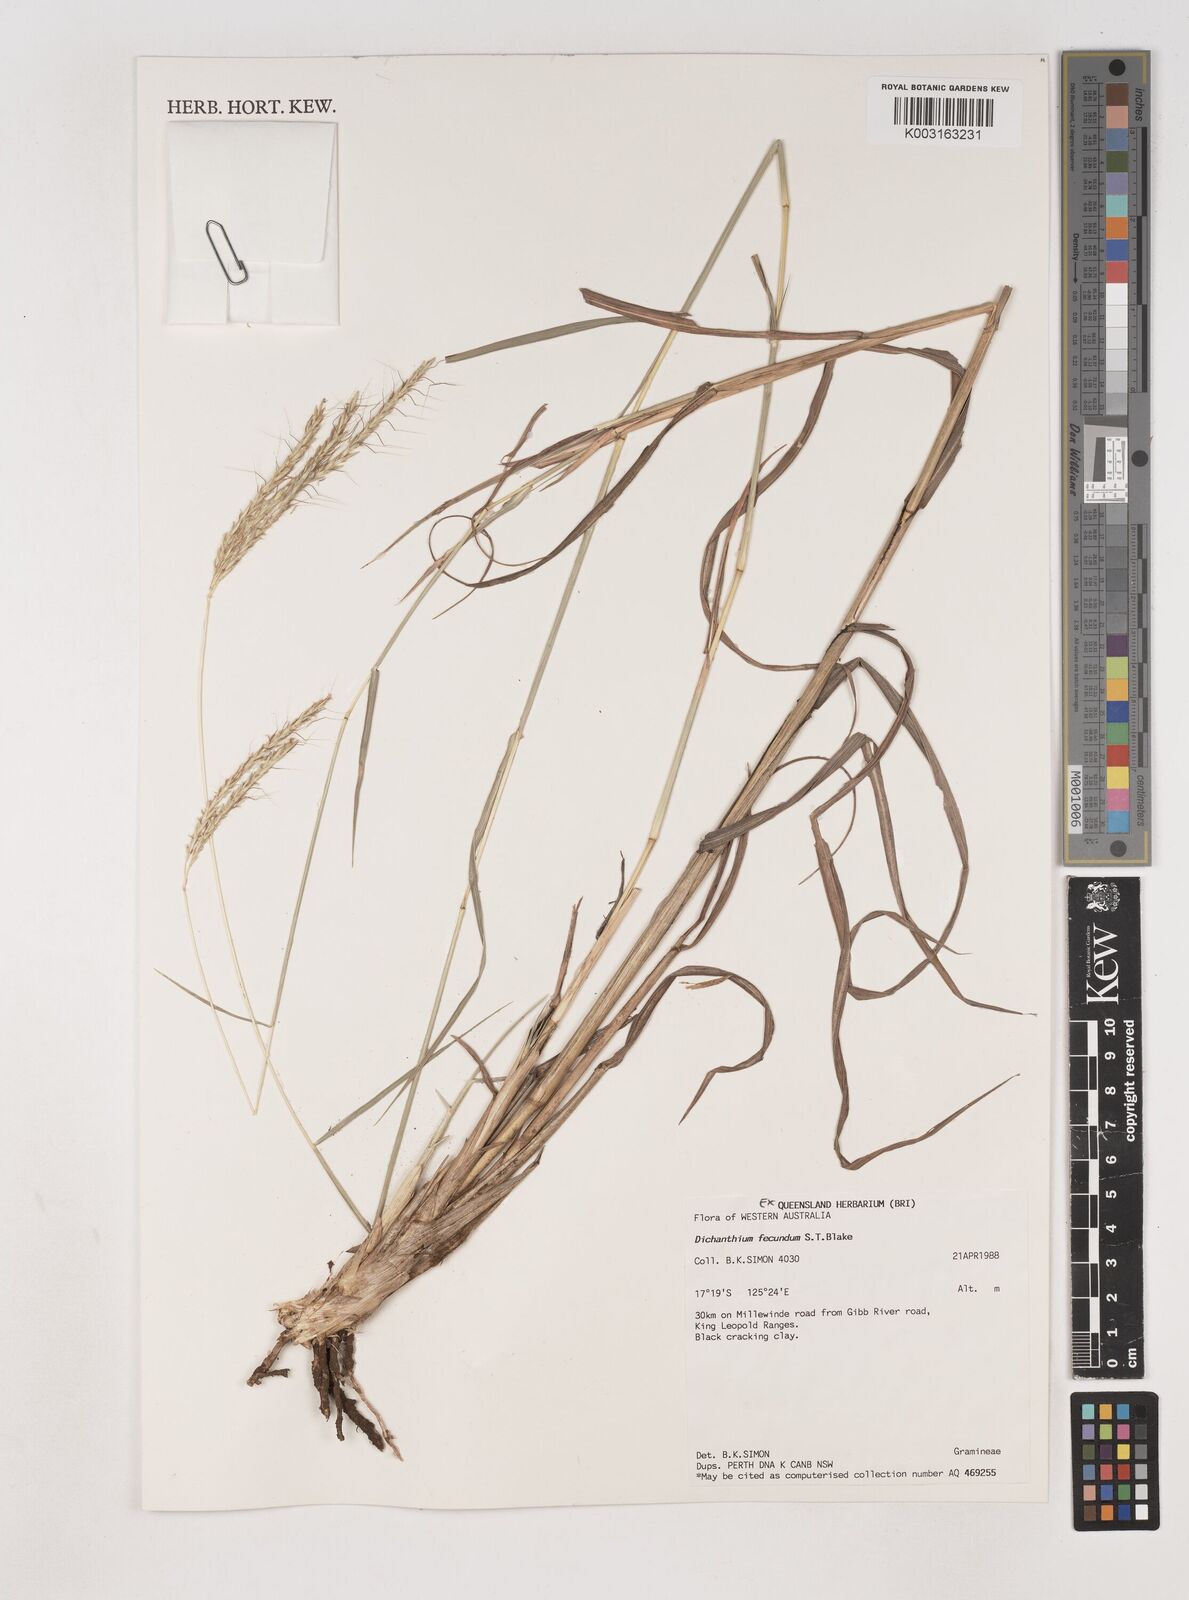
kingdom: Plantae
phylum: Tracheophyta
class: Liliopsida
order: Poales
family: Poaceae
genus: Dichanthium
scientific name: Dichanthium fecundum
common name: Bundle-bundle
